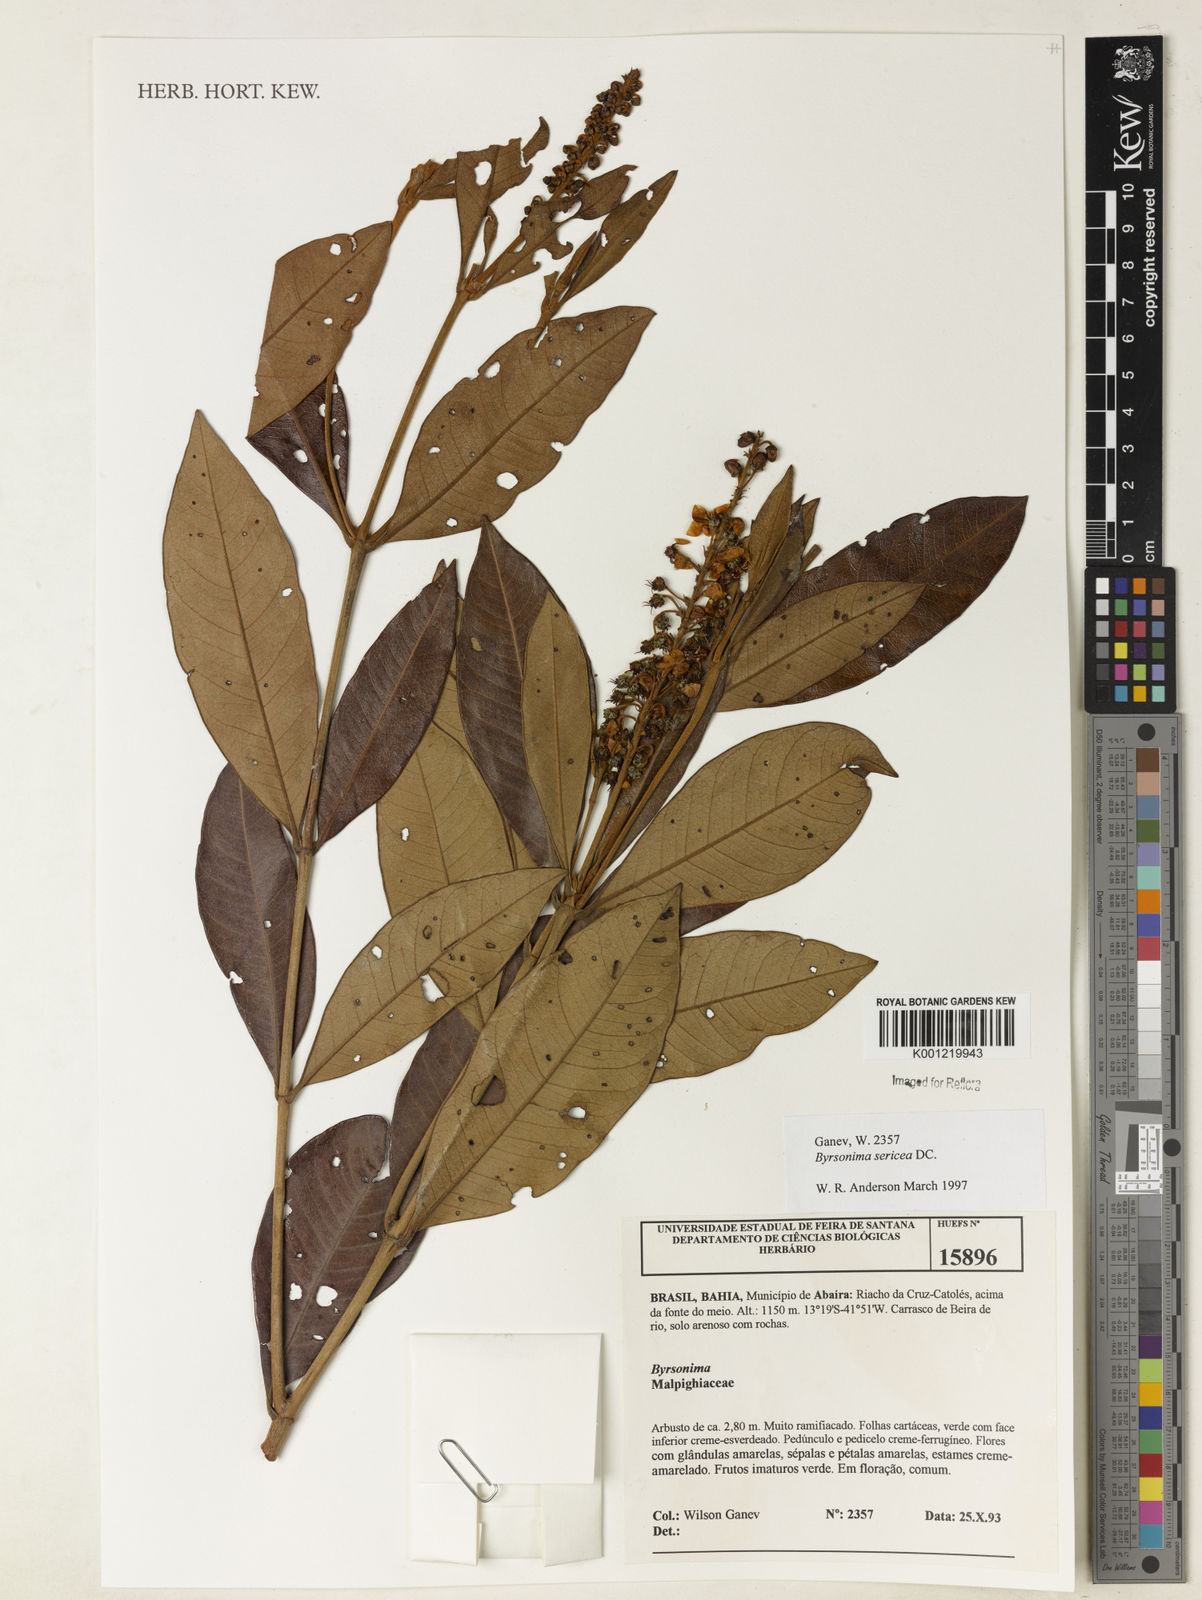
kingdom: Plantae
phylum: Tracheophyta
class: Magnoliopsida
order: Malpighiales
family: Malpighiaceae
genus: Byrsonima
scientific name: Byrsonima sericea
